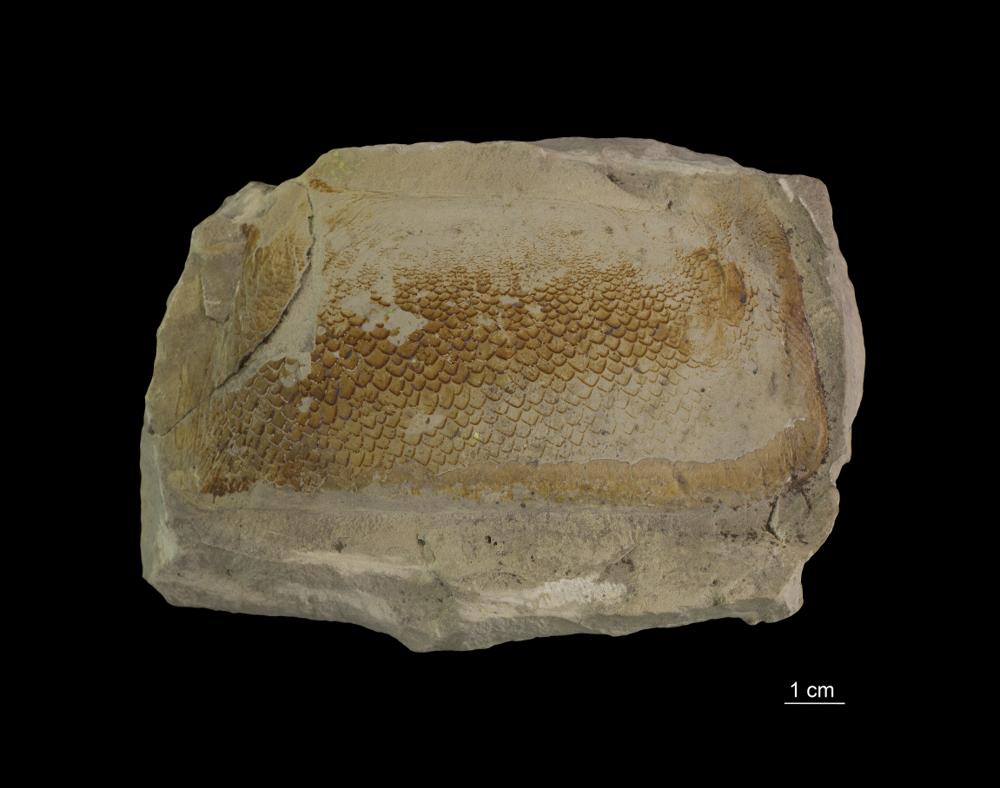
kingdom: Animalia
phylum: Chordata
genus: Pterygotus
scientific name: Pterygotus
